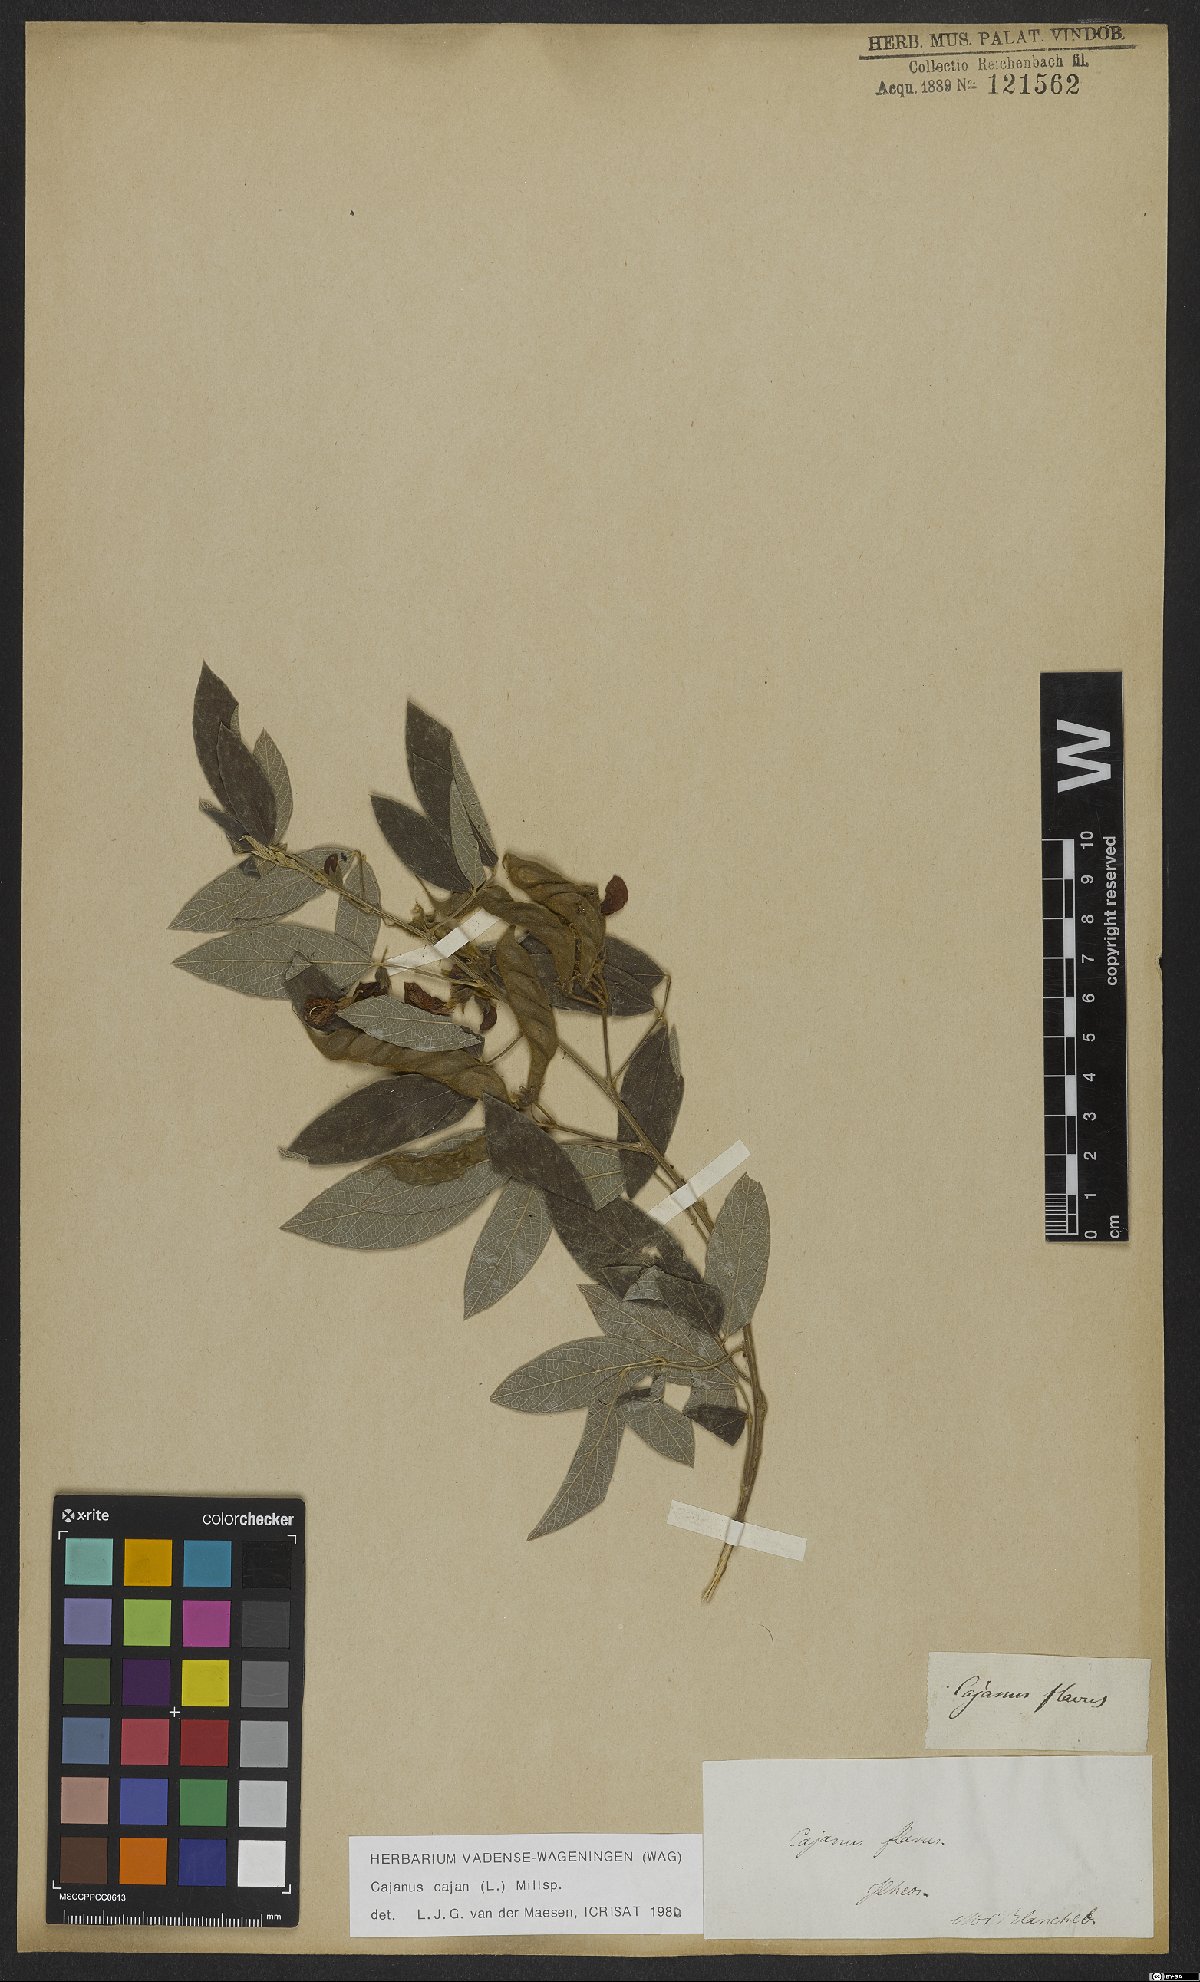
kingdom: Plantae
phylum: Tracheophyta
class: Magnoliopsida
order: Fabales
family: Fabaceae
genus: Cajanus
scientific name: Cajanus cajan
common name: Pigeonpea
